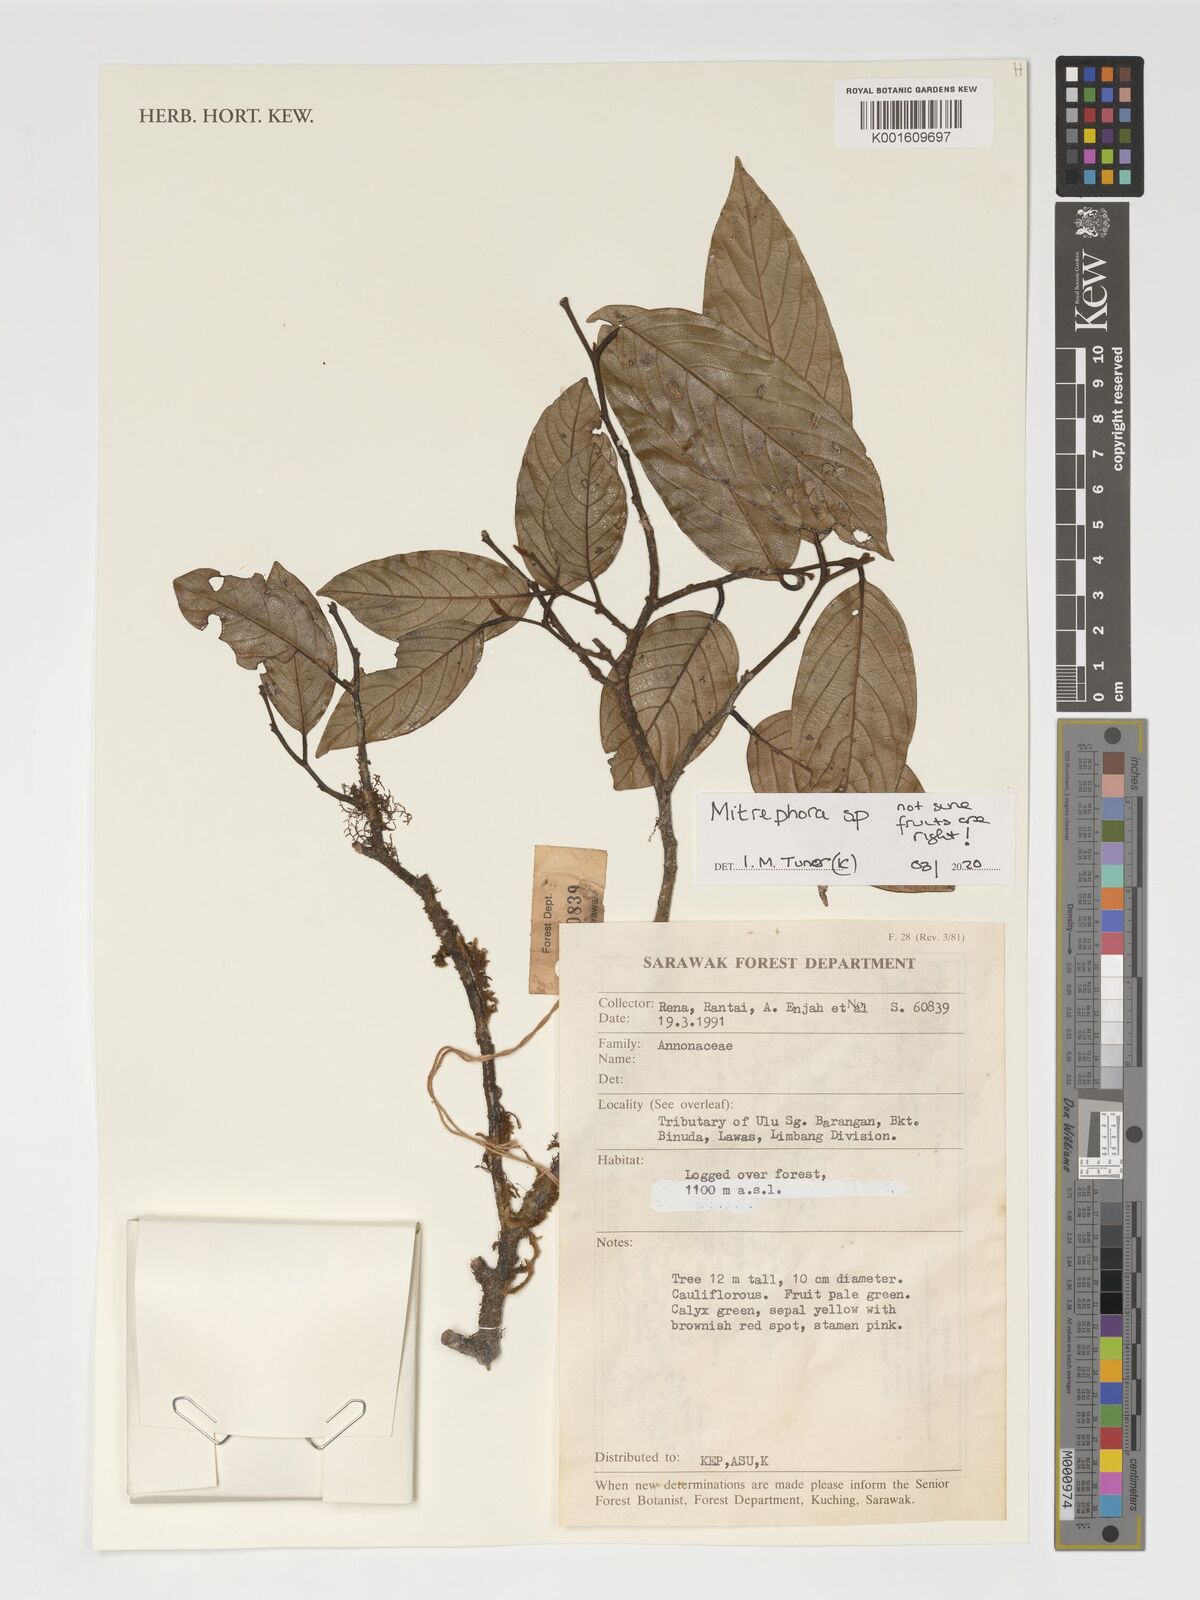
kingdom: Plantae
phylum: Tracheophyta
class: Magnoliopsida
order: Magnoliales
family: Annonaceae
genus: Mitrephora
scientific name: Mitrephora
